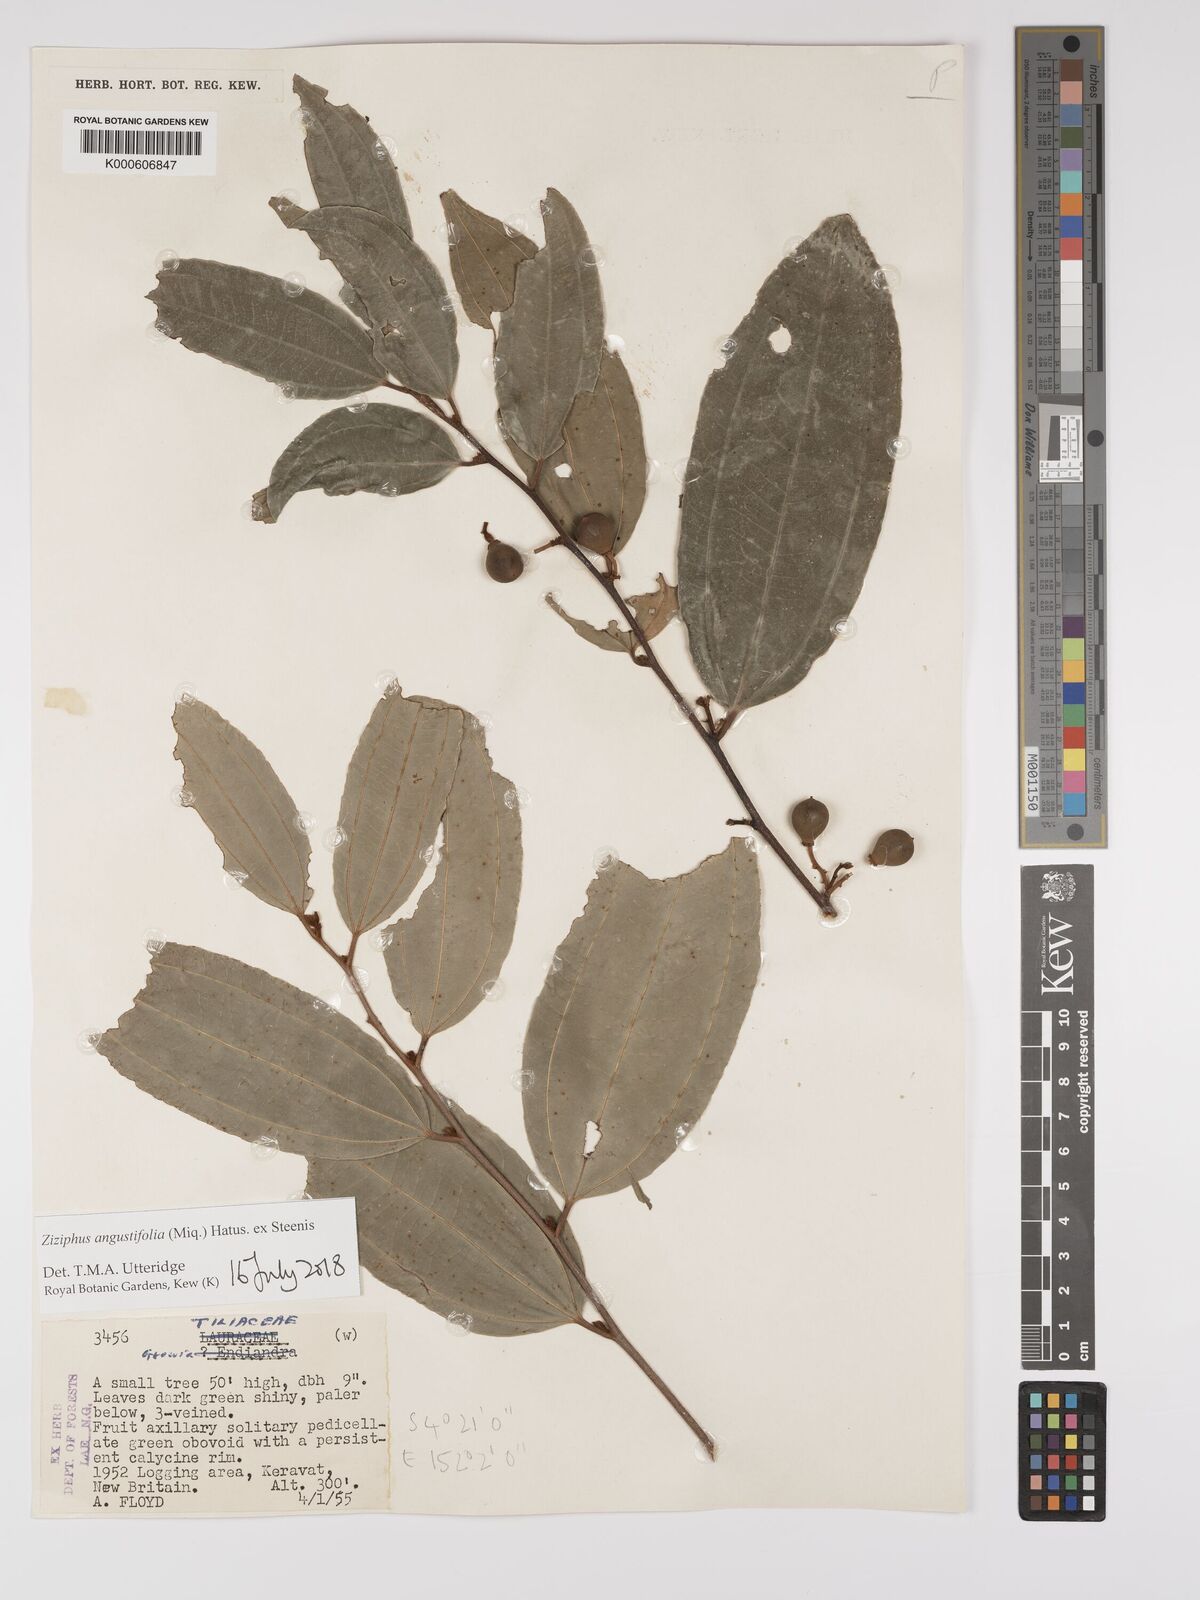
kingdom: Plantae
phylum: Tracheophyta
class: Magnoliopsida
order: Rosales
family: Rhamnaceae
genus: Ziziphus
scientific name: Ziziphus angustifolia
